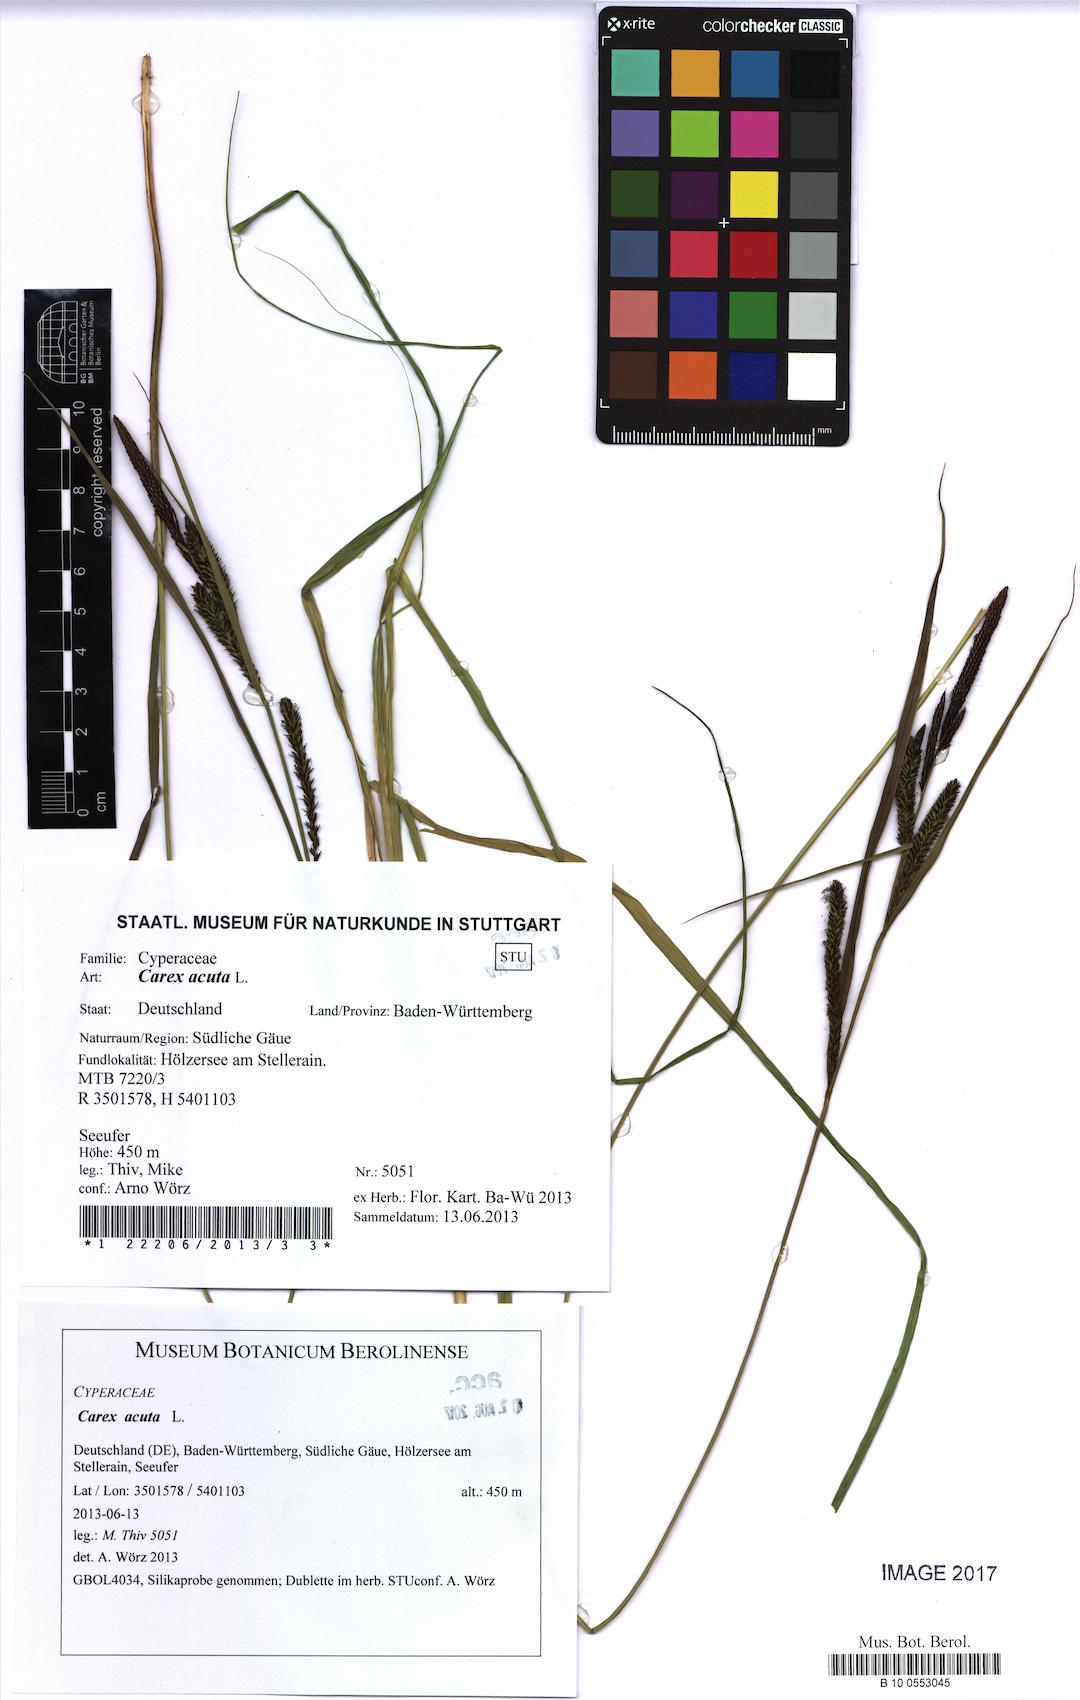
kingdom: Plantae
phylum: Tracheophyta
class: Liliopsida
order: Poales
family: Cyperaceae
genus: Carex
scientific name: Carex acuta
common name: Slender tufted-sedge
